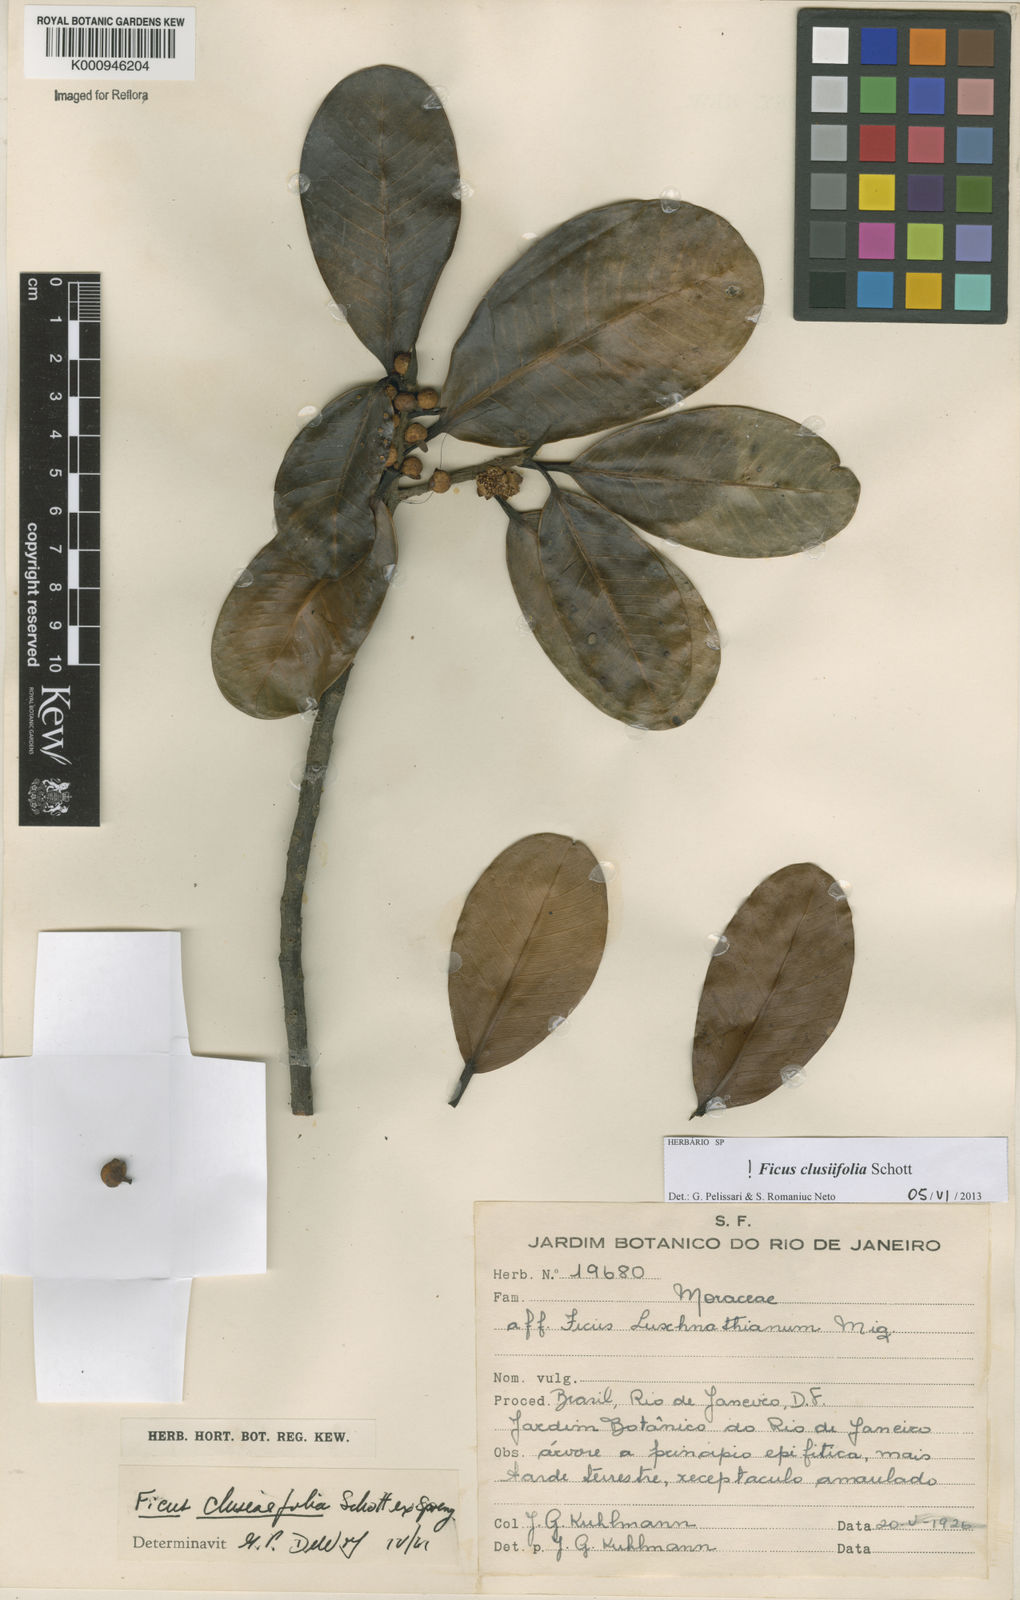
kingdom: Plantae
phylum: Tracheophyta
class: Magnoliopsida
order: Rosales
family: Moraceae
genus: Ficus
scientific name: Ficus
